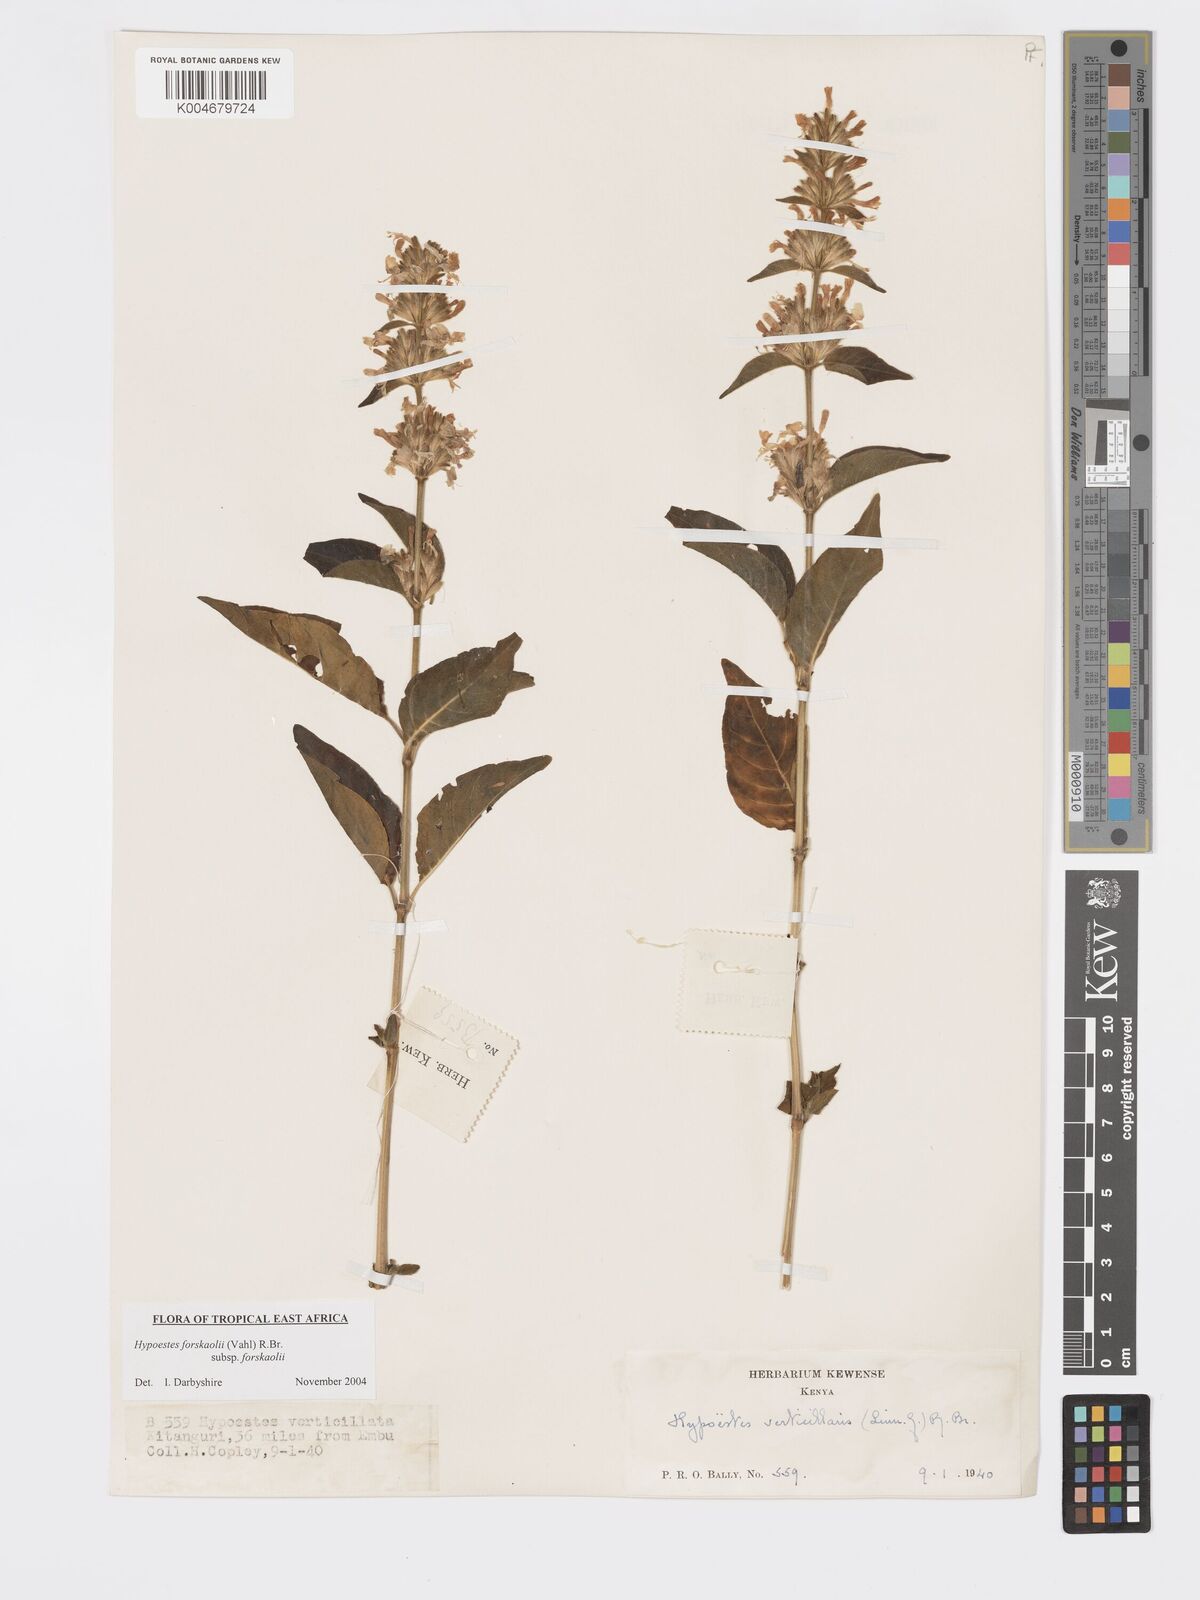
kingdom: Plantae
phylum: Tracheophyta
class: Magnoliopsida
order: Lamiales
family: Acanthaceae
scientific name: Acanthaceae
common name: Acanthaceae
